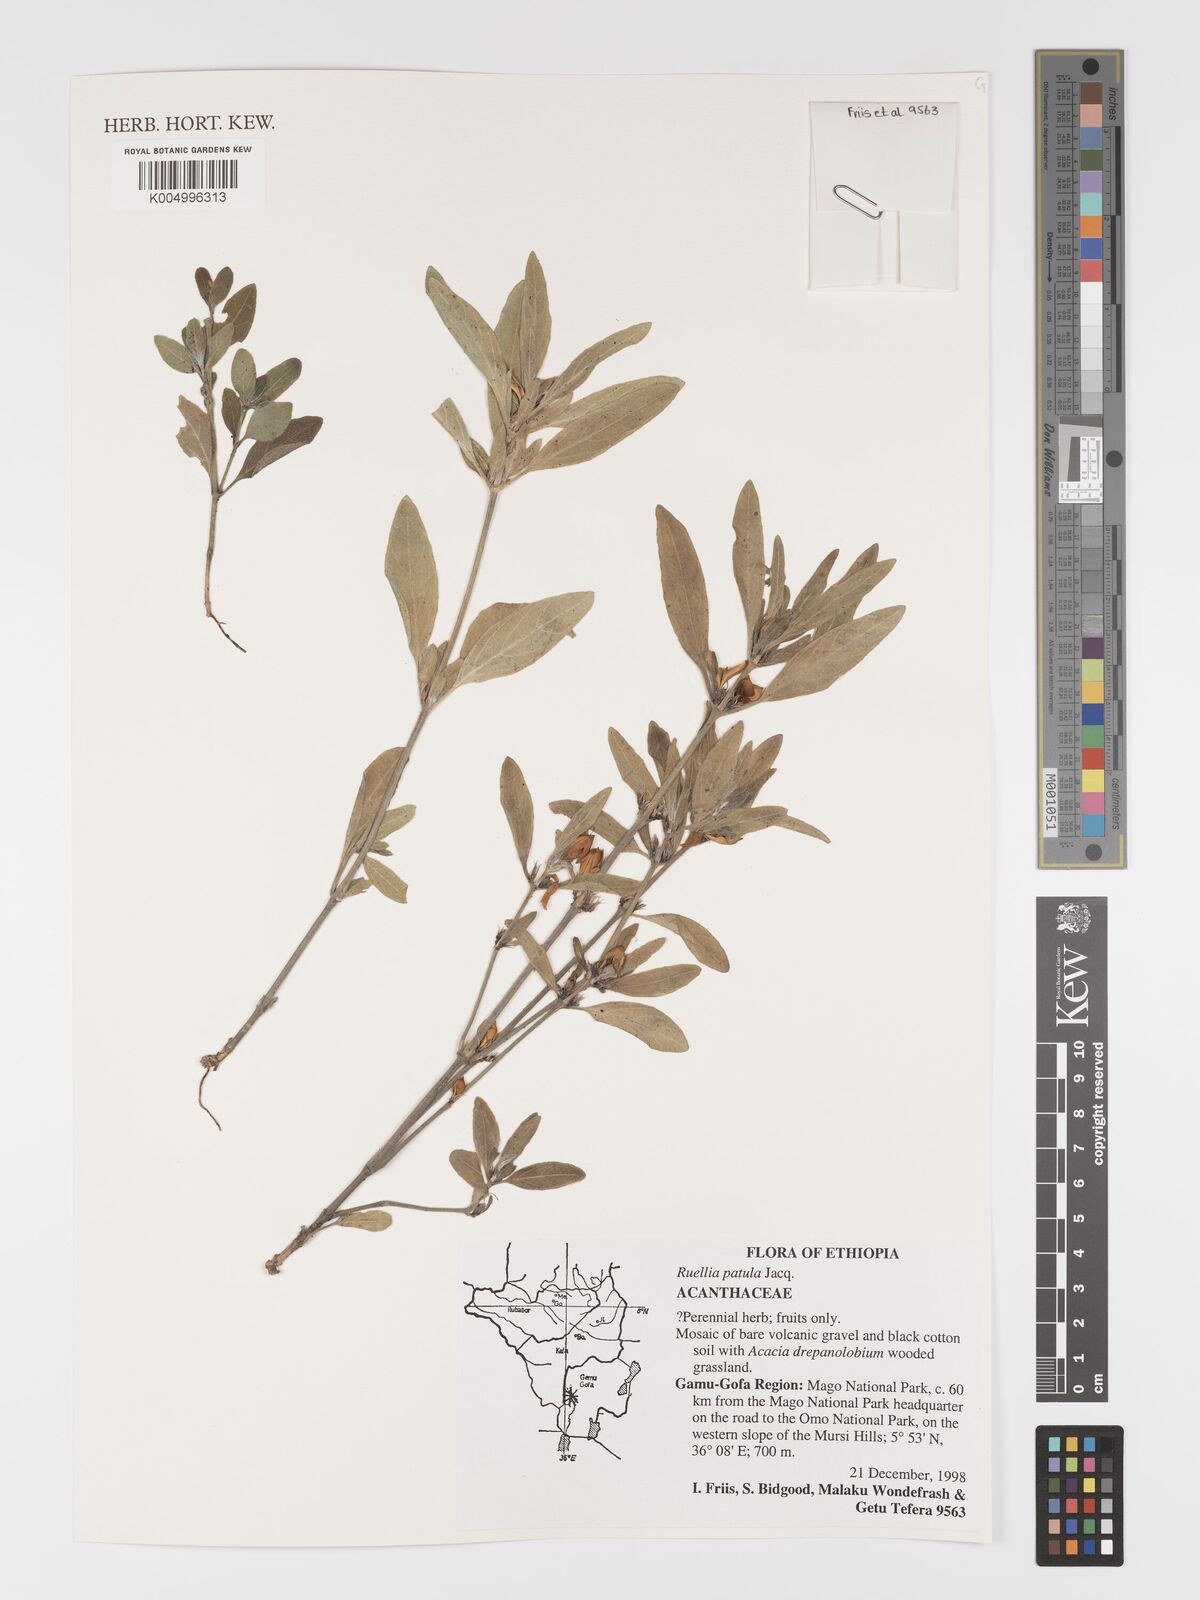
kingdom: Plantae
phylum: Tracheophyta
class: Magnoliopsida
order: Lamiales
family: Acanthaceae
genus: Ruellia
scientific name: Ruellia patula
